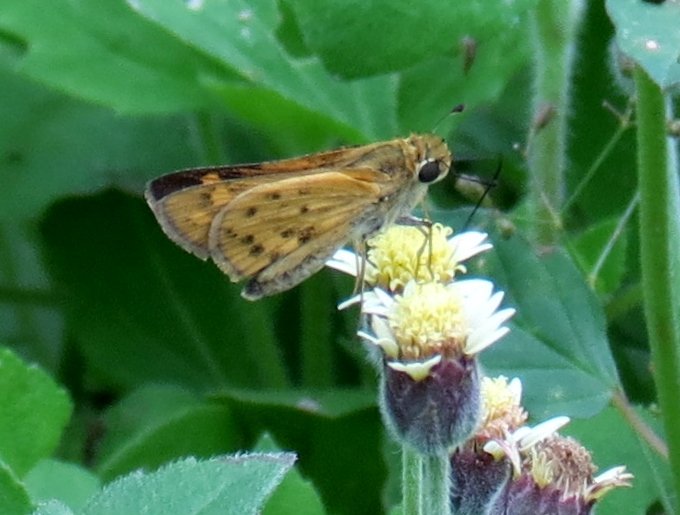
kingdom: Animalia
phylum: Arthropoda
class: Insecta
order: Lepidoptera
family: Hesperiidae
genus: Hylephila
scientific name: Hylephila phyleus
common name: Fiery Skipper
